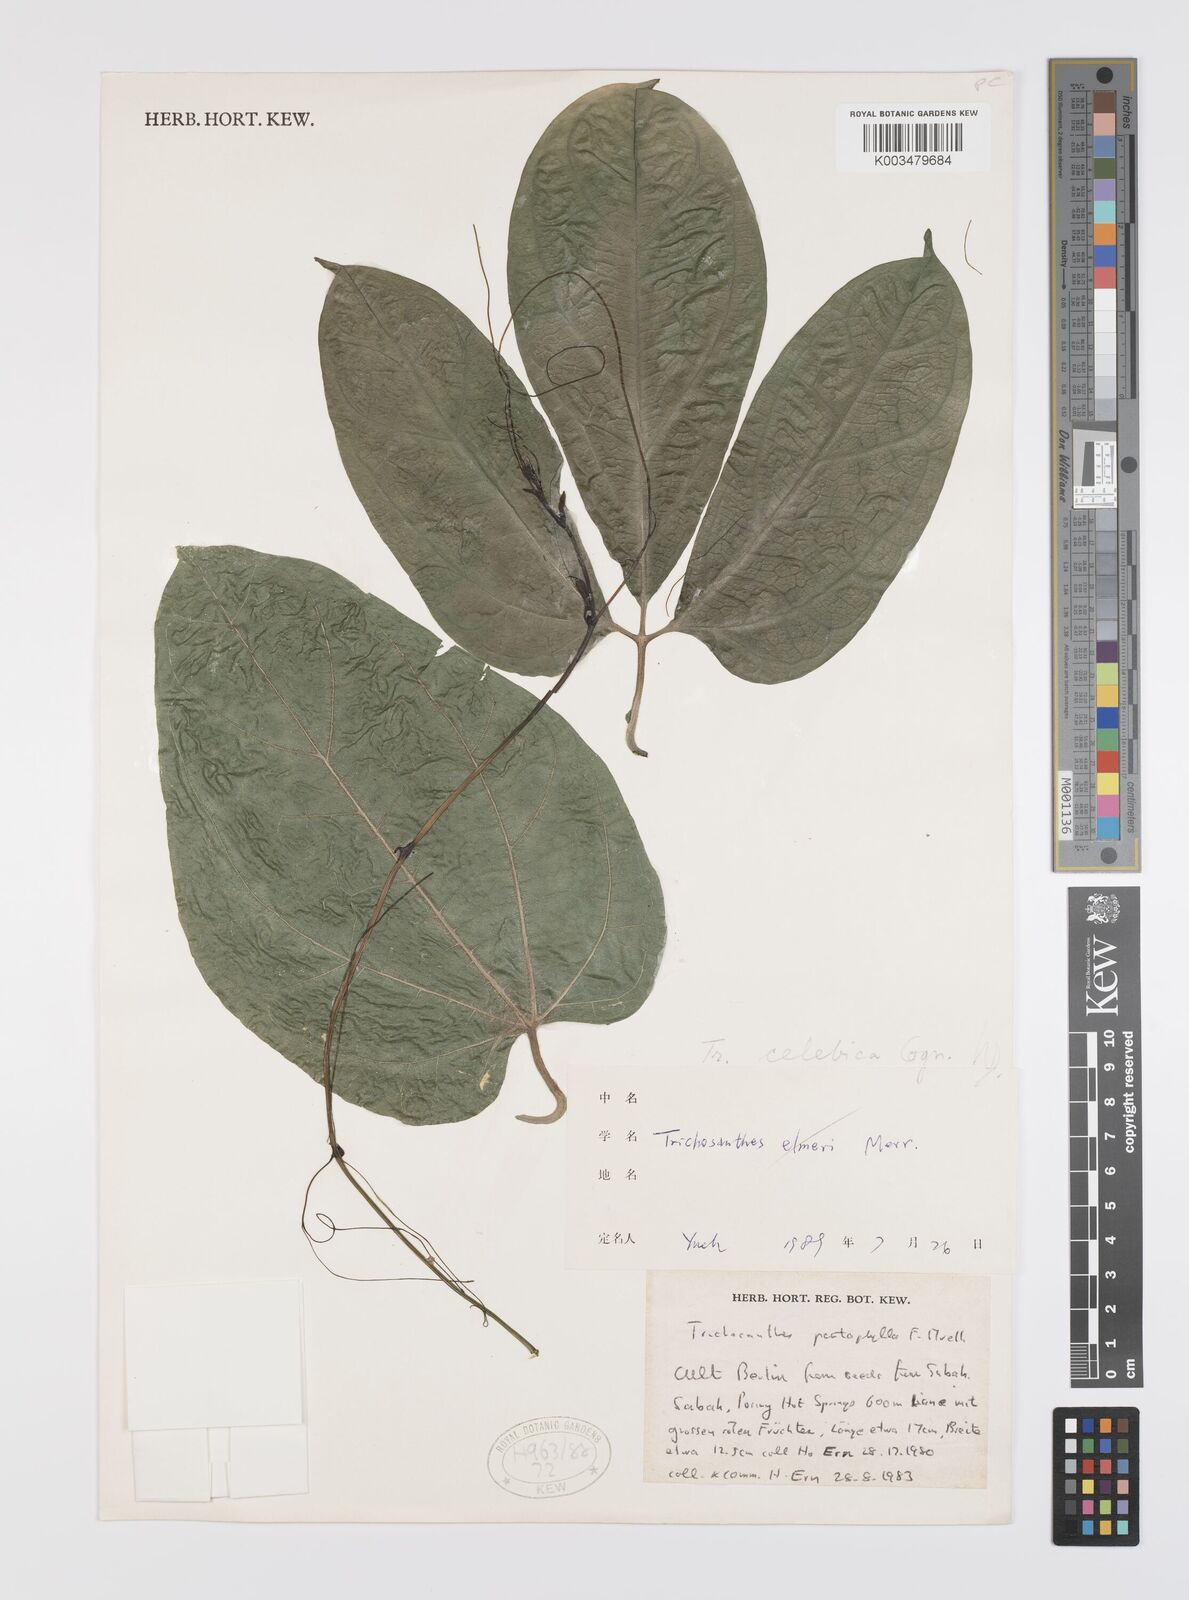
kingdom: Plantae
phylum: Tracheophyta
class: Magnoliopsida
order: Cucurbitales
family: Cucurbitaceae
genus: Trichosanthes
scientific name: Trichosanthes pentaphylla
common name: Red gourd
